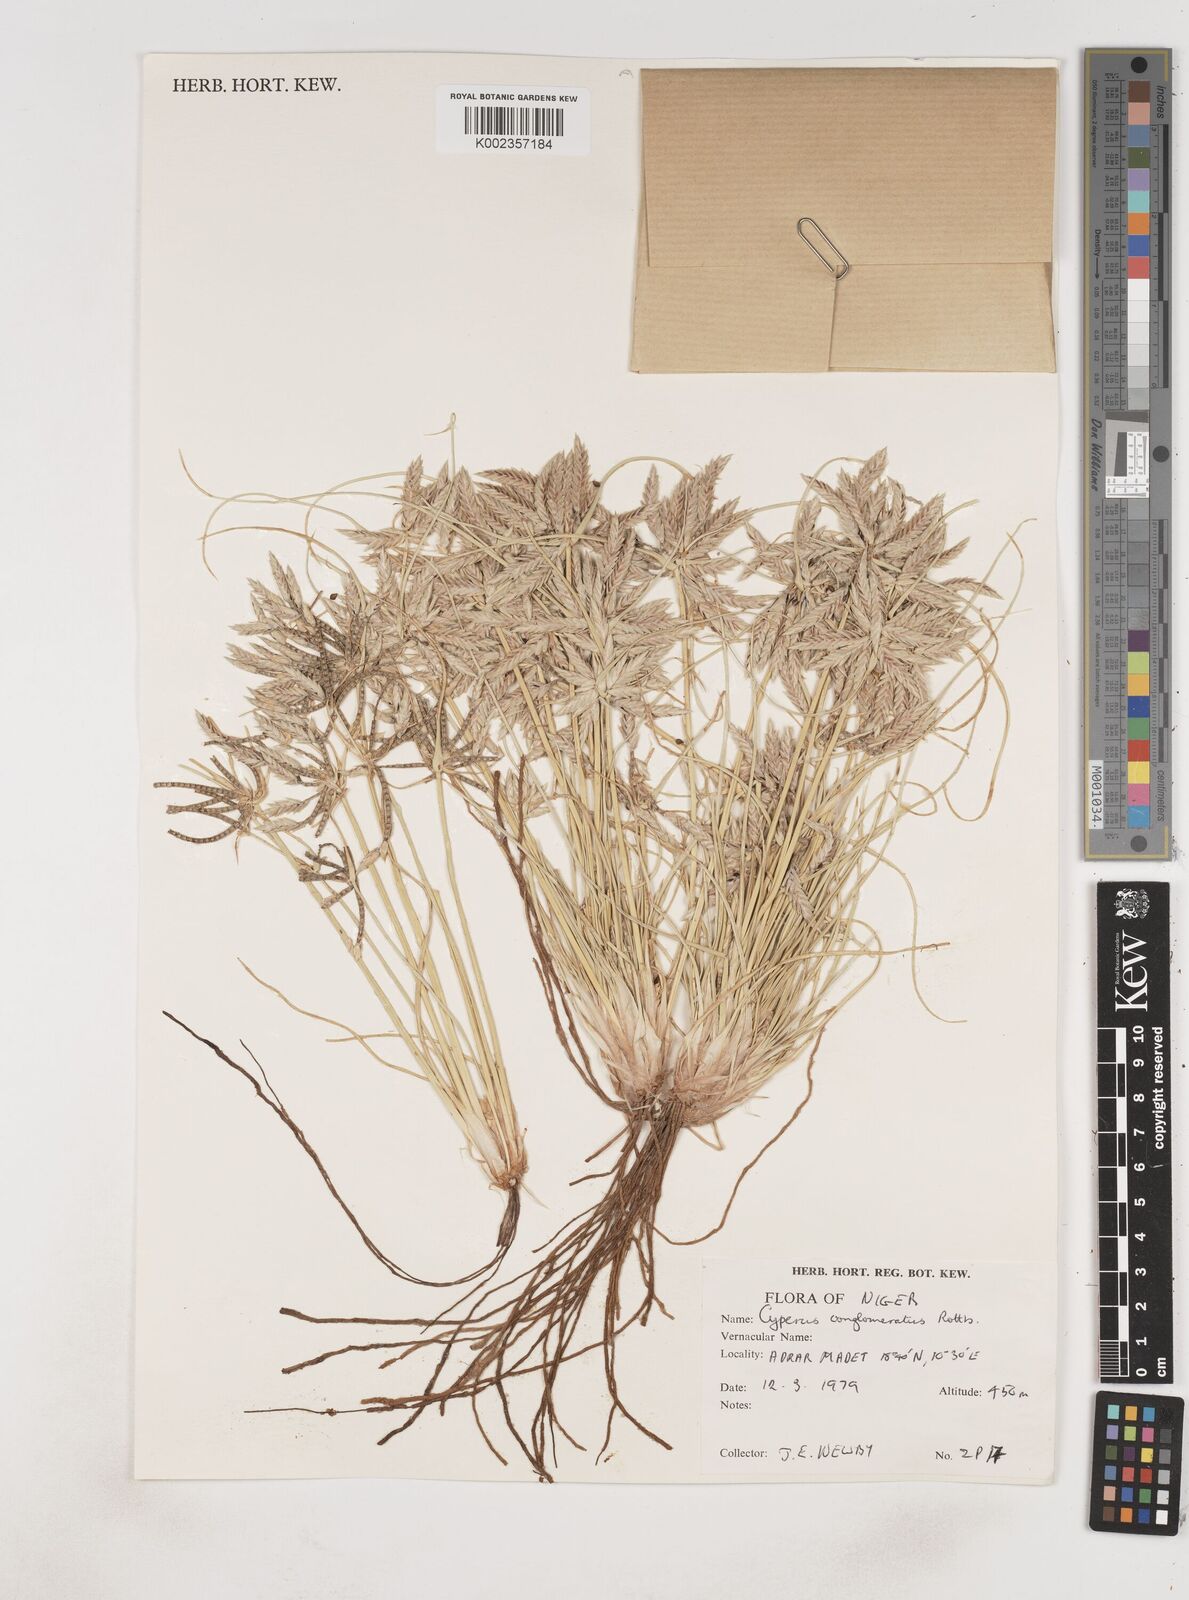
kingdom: Plantae
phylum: Tracheophyta
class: Liliopsida
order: Poales
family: Cyperaceae
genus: Cyperus
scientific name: Cyperus conglomeratus
